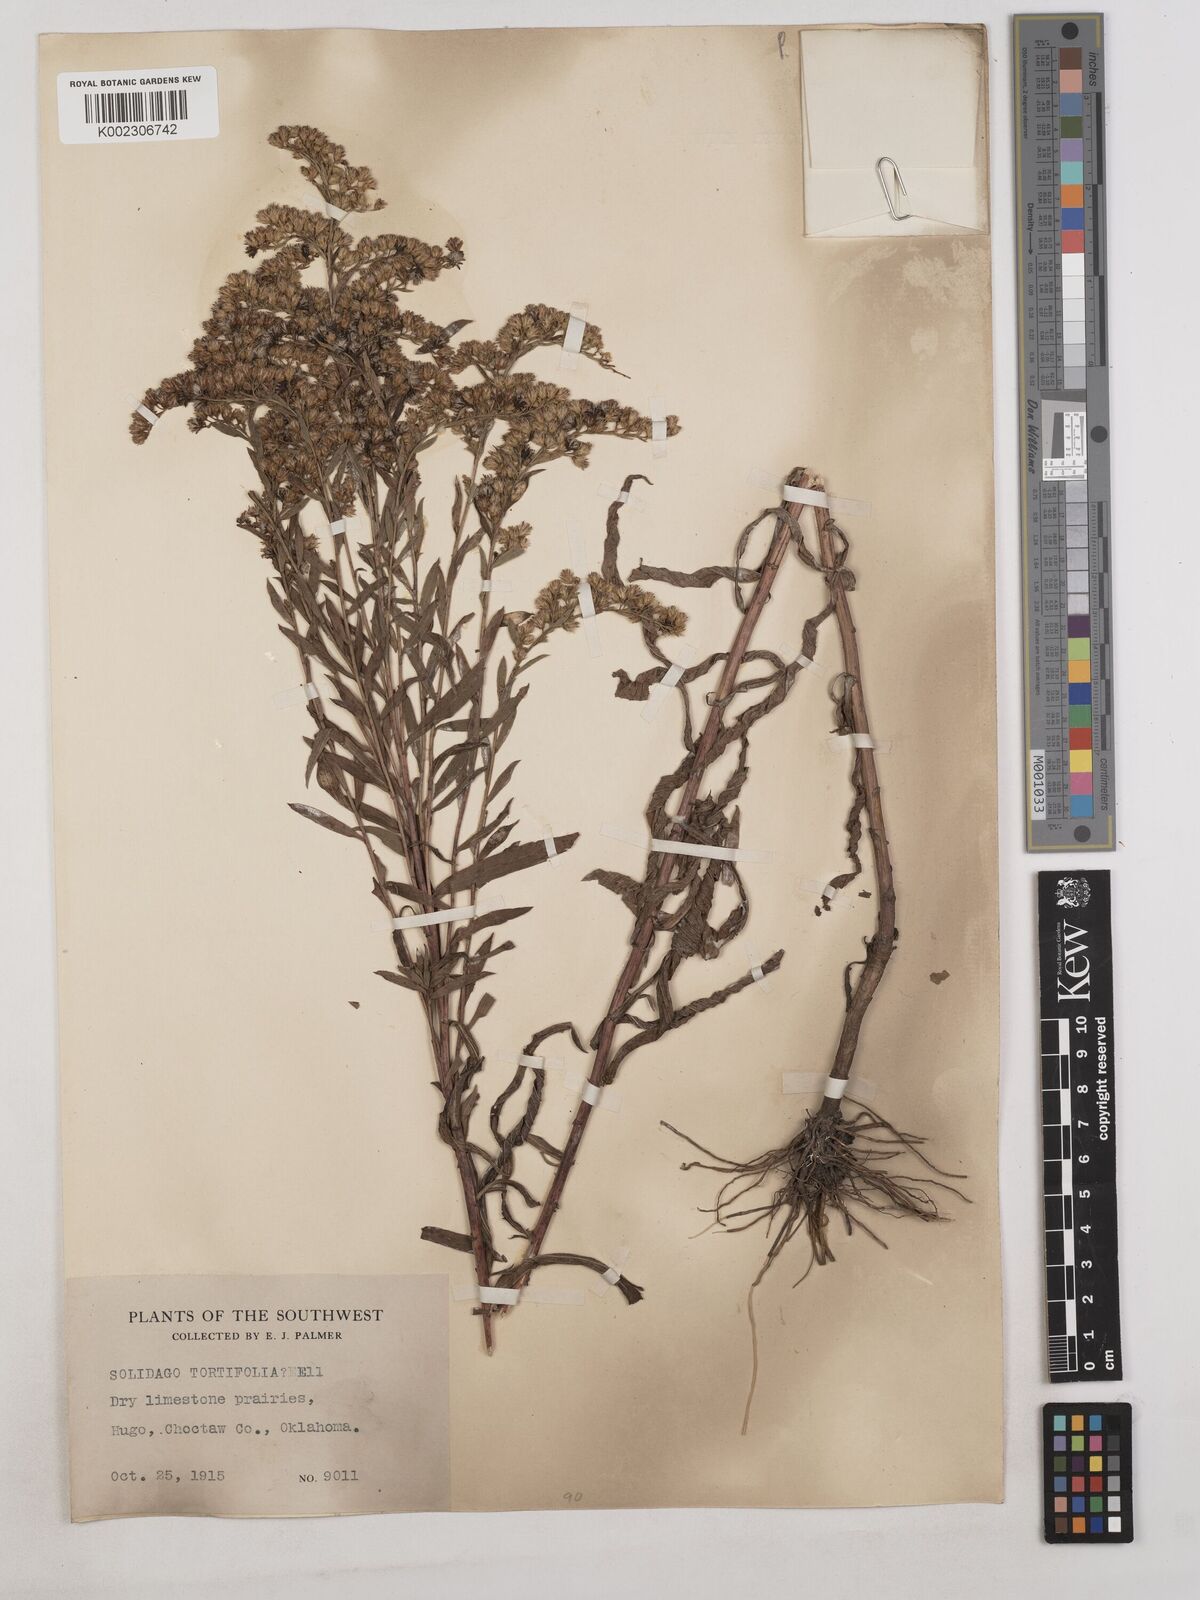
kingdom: Plantae
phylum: Tracheophyta
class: Magnoliopsida
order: Asterales
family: Asteraceae
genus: Solidago
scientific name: Solidago tortifolia
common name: Twisted-leaf goldenrod
